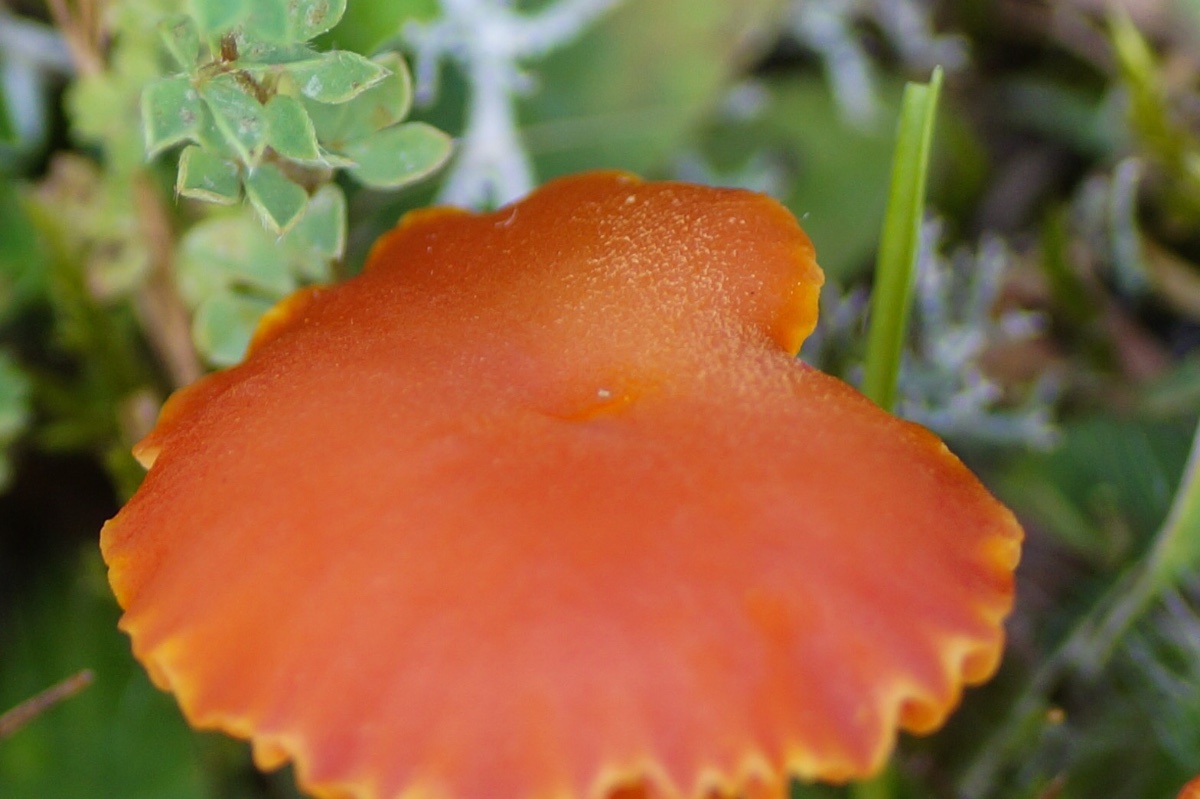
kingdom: Fungi
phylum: Basidiomycota
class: Agaricomycetes
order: Agaricales
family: Hygrophoraceae
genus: Hygrocybe
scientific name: Hygrocybe calciphila
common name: kalk-vokshat
